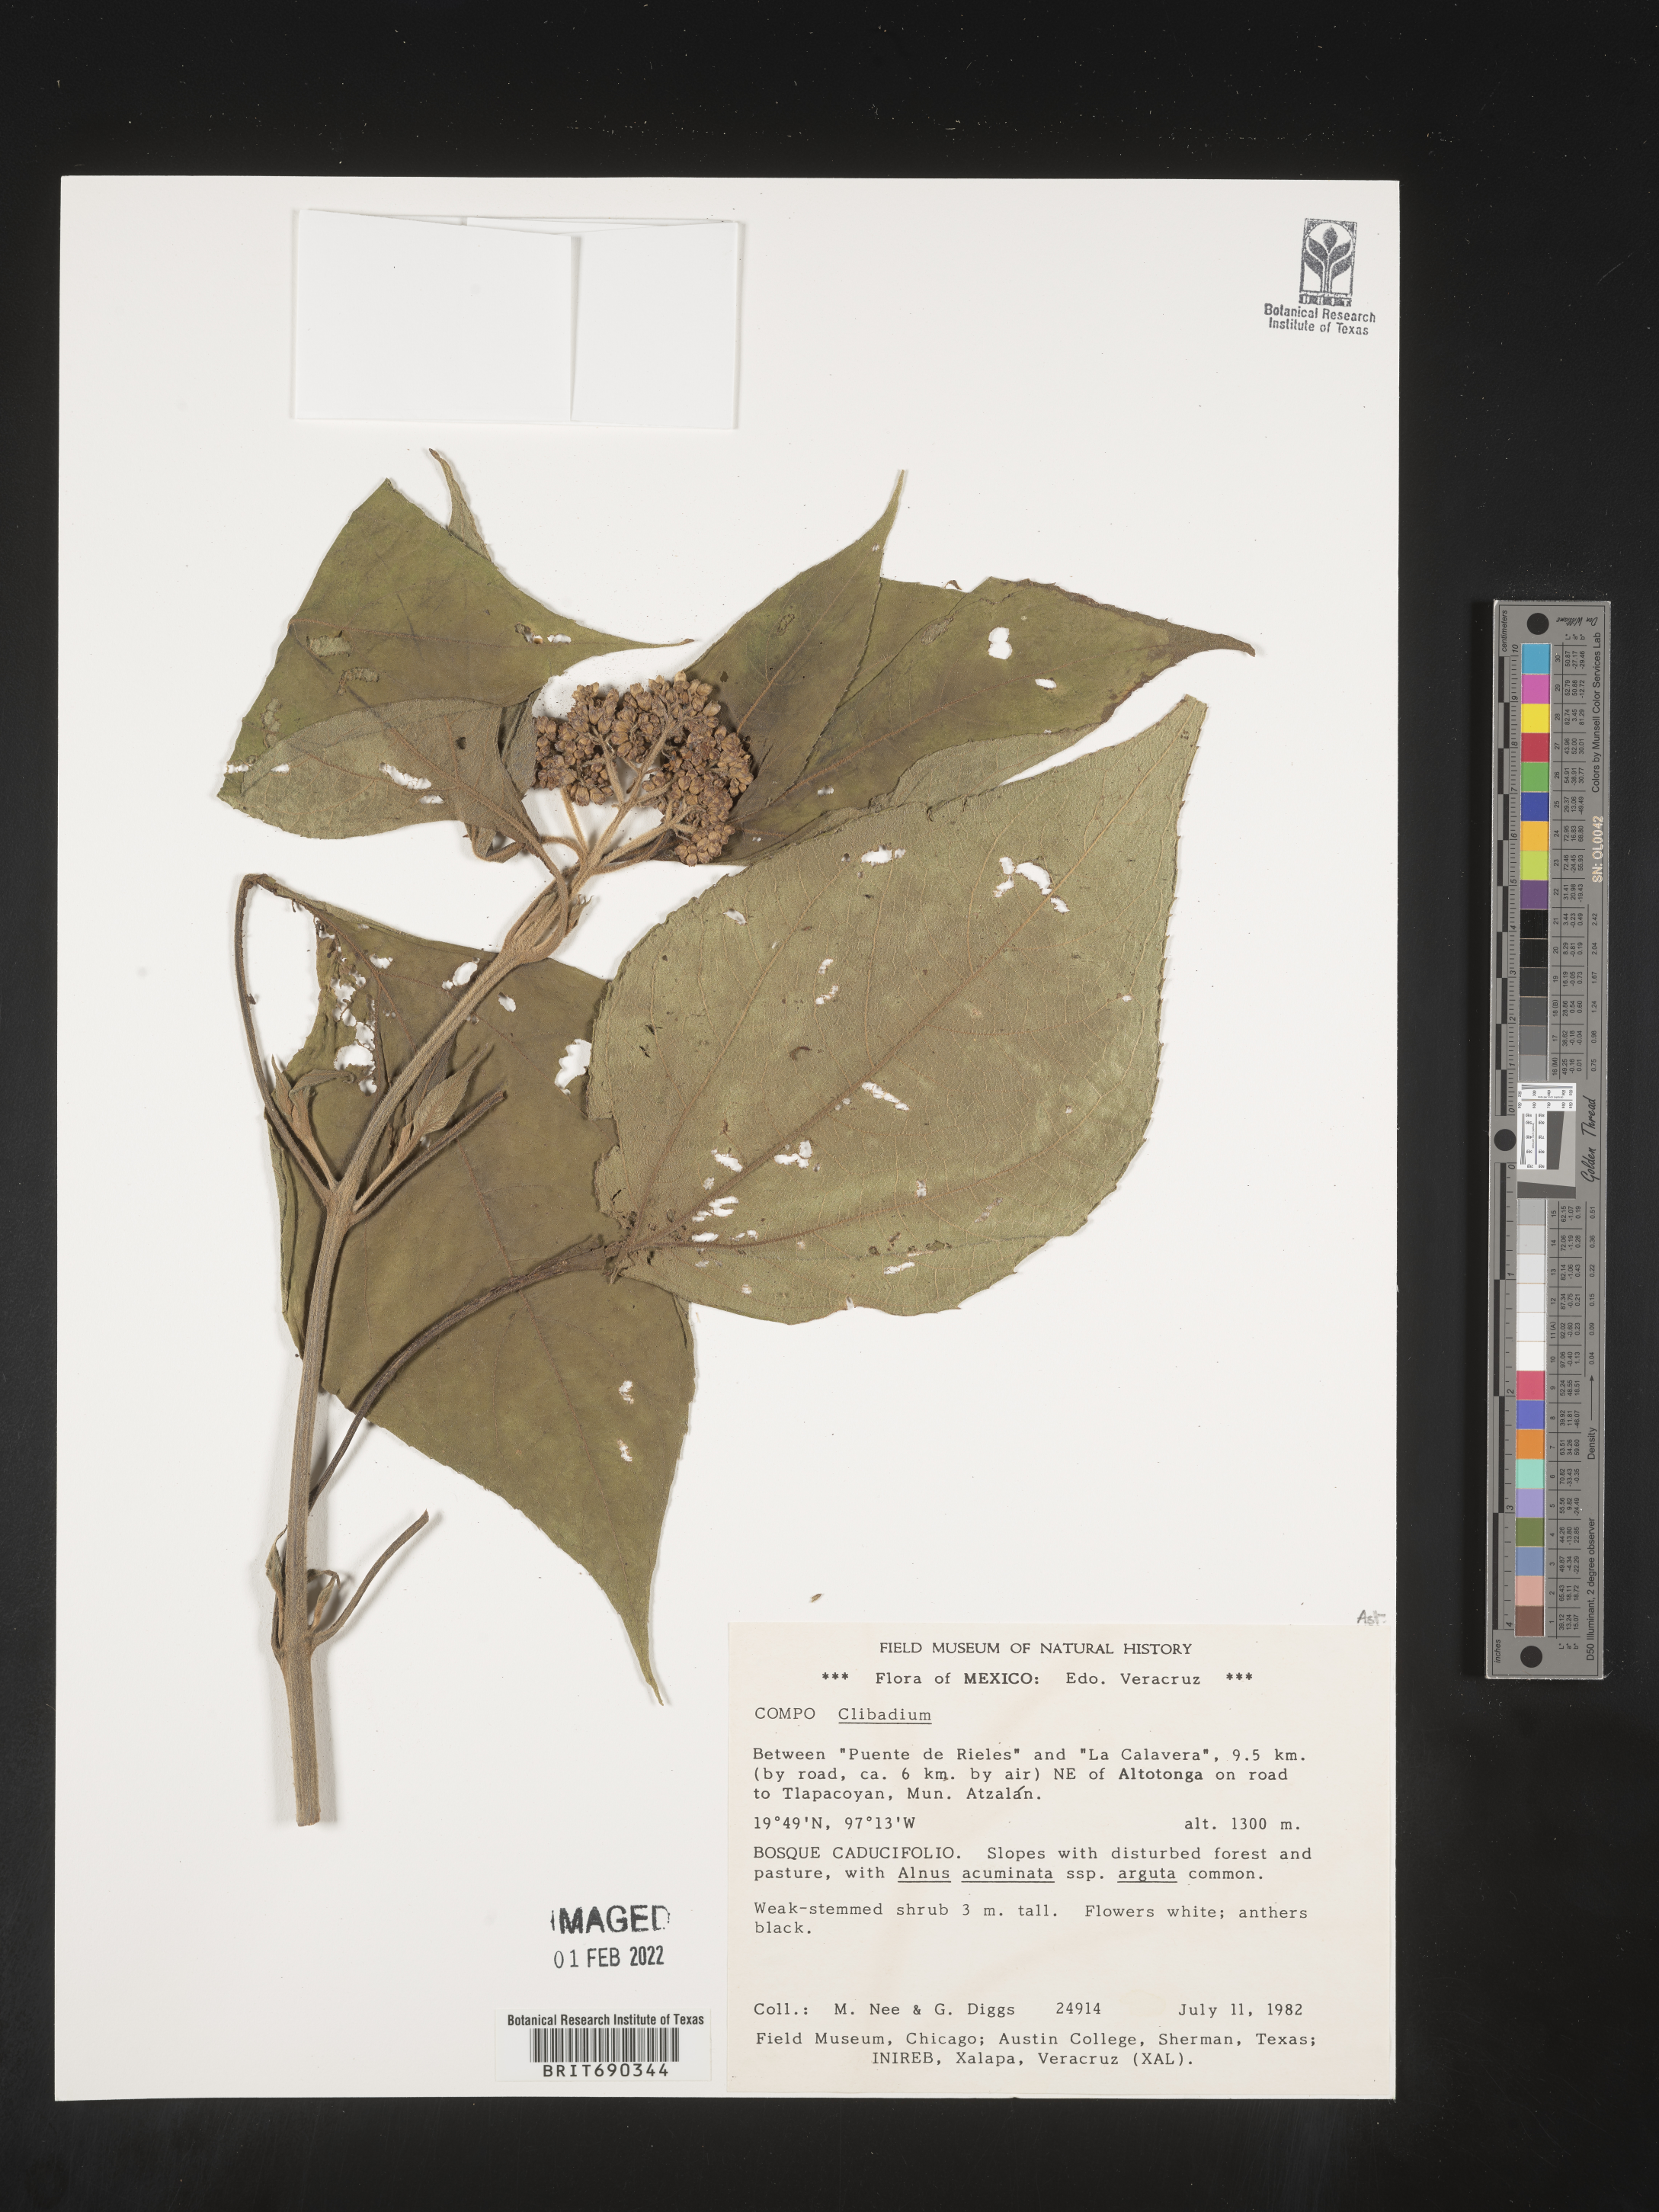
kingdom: Plantae
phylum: Tracheophyta
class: Magnoliopsida
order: Asterales
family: Asteraceae
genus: Clibadium
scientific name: Clibadium
